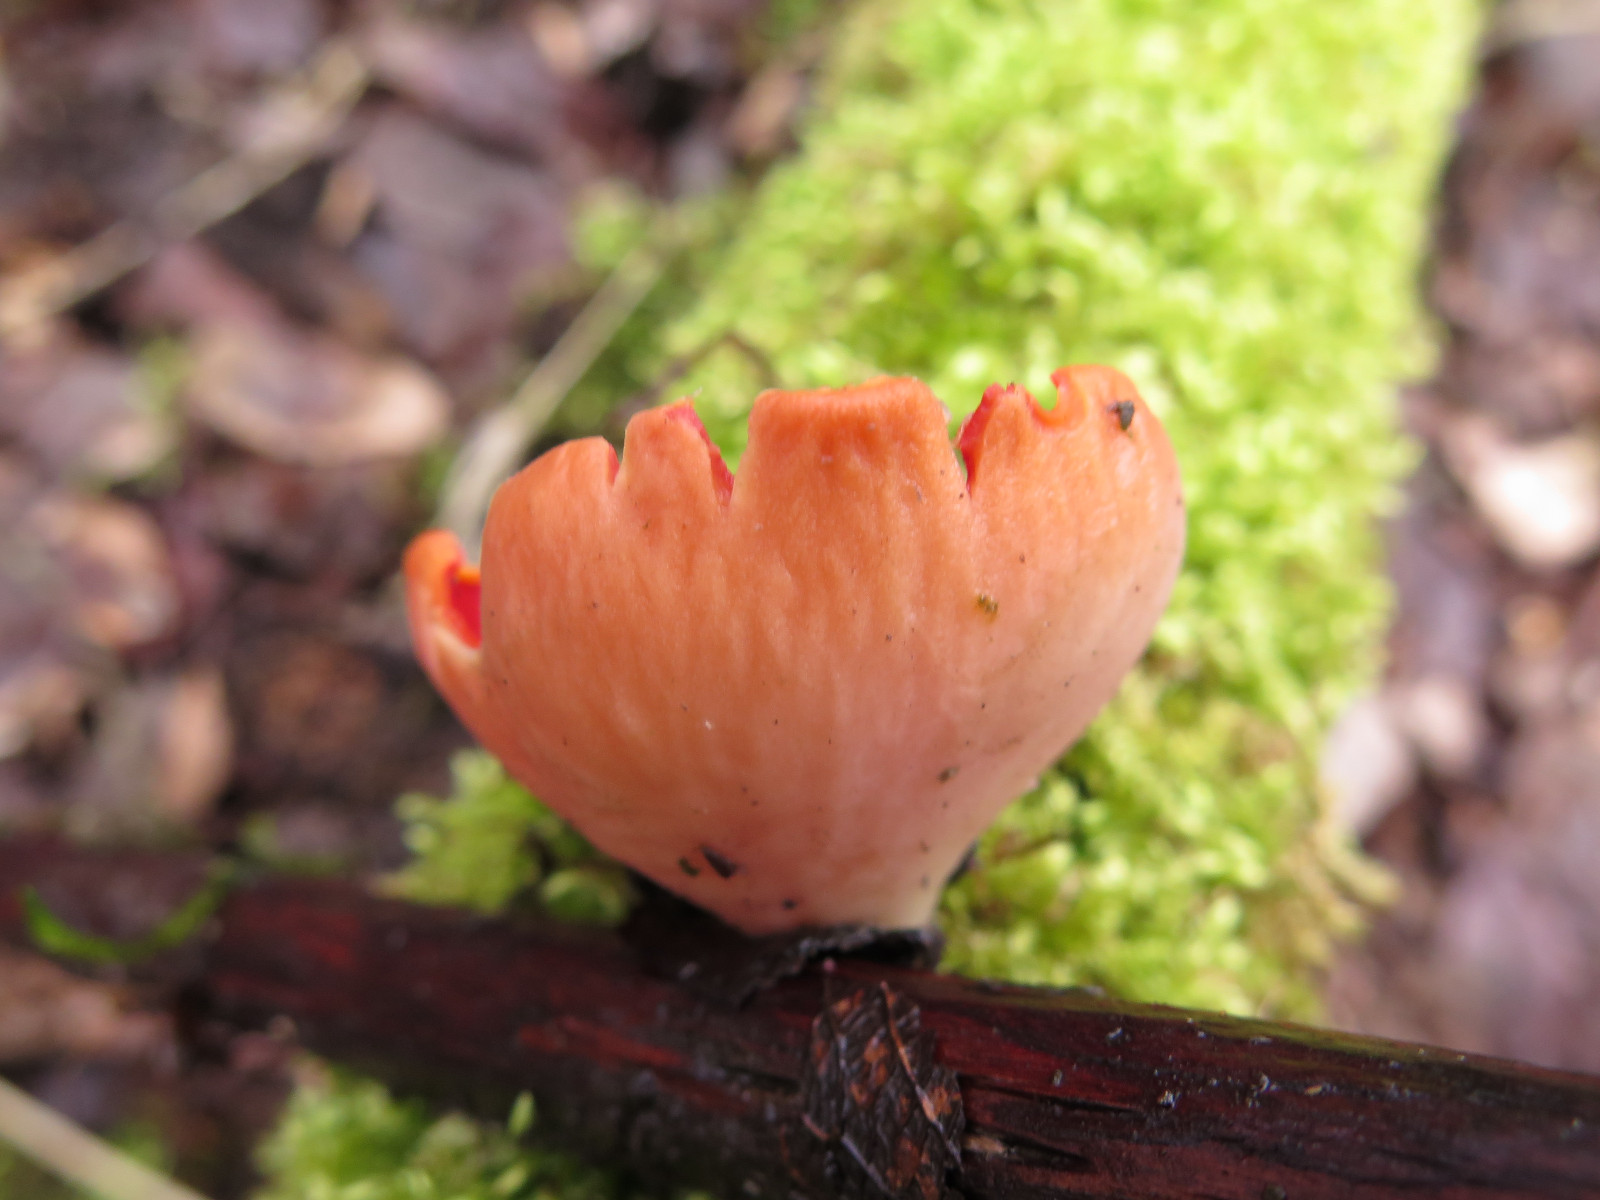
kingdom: Fungi
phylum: Ascomycota
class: Pezizomycetes
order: Pezizales
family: Sarcoscyphaceae
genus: Sarcoscypha
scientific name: Sarcoscypha austriaca
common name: krølhåret pragtbæger
